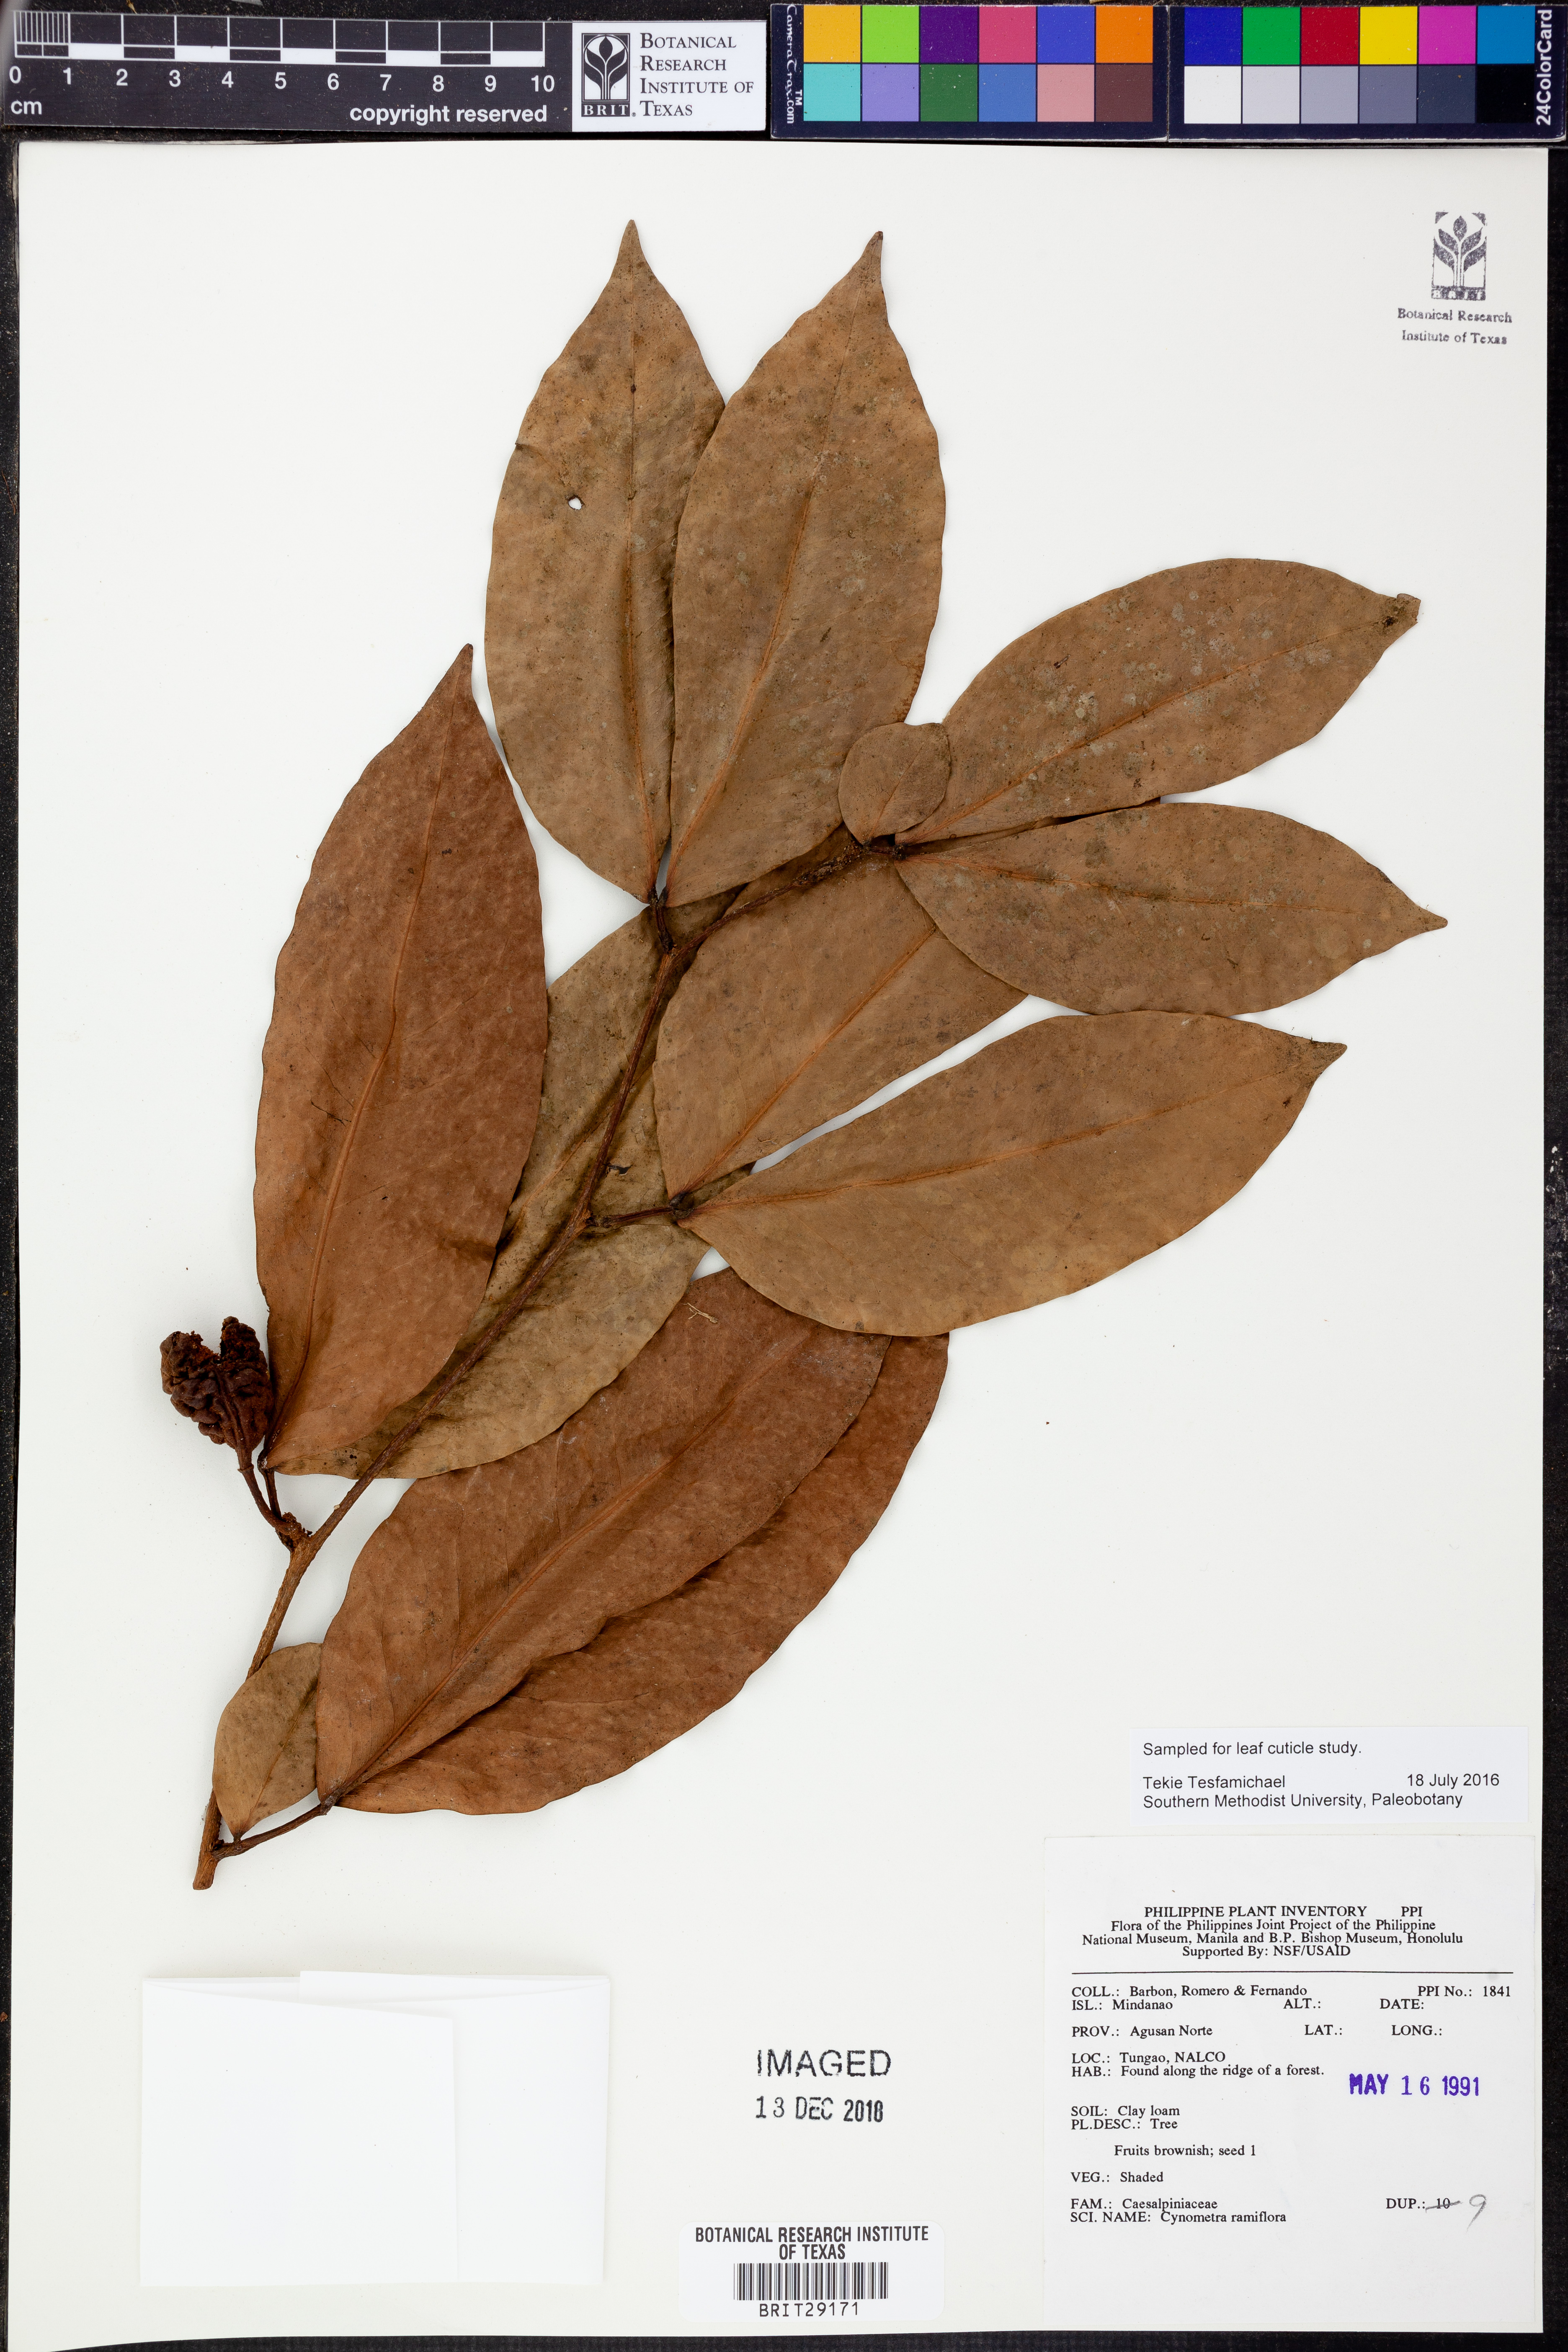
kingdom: Plantae
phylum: Tracheophyta
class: Magnoliopsida
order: Fabales
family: Fabaceae
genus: Cynometra
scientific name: Cynometra ramiflora
